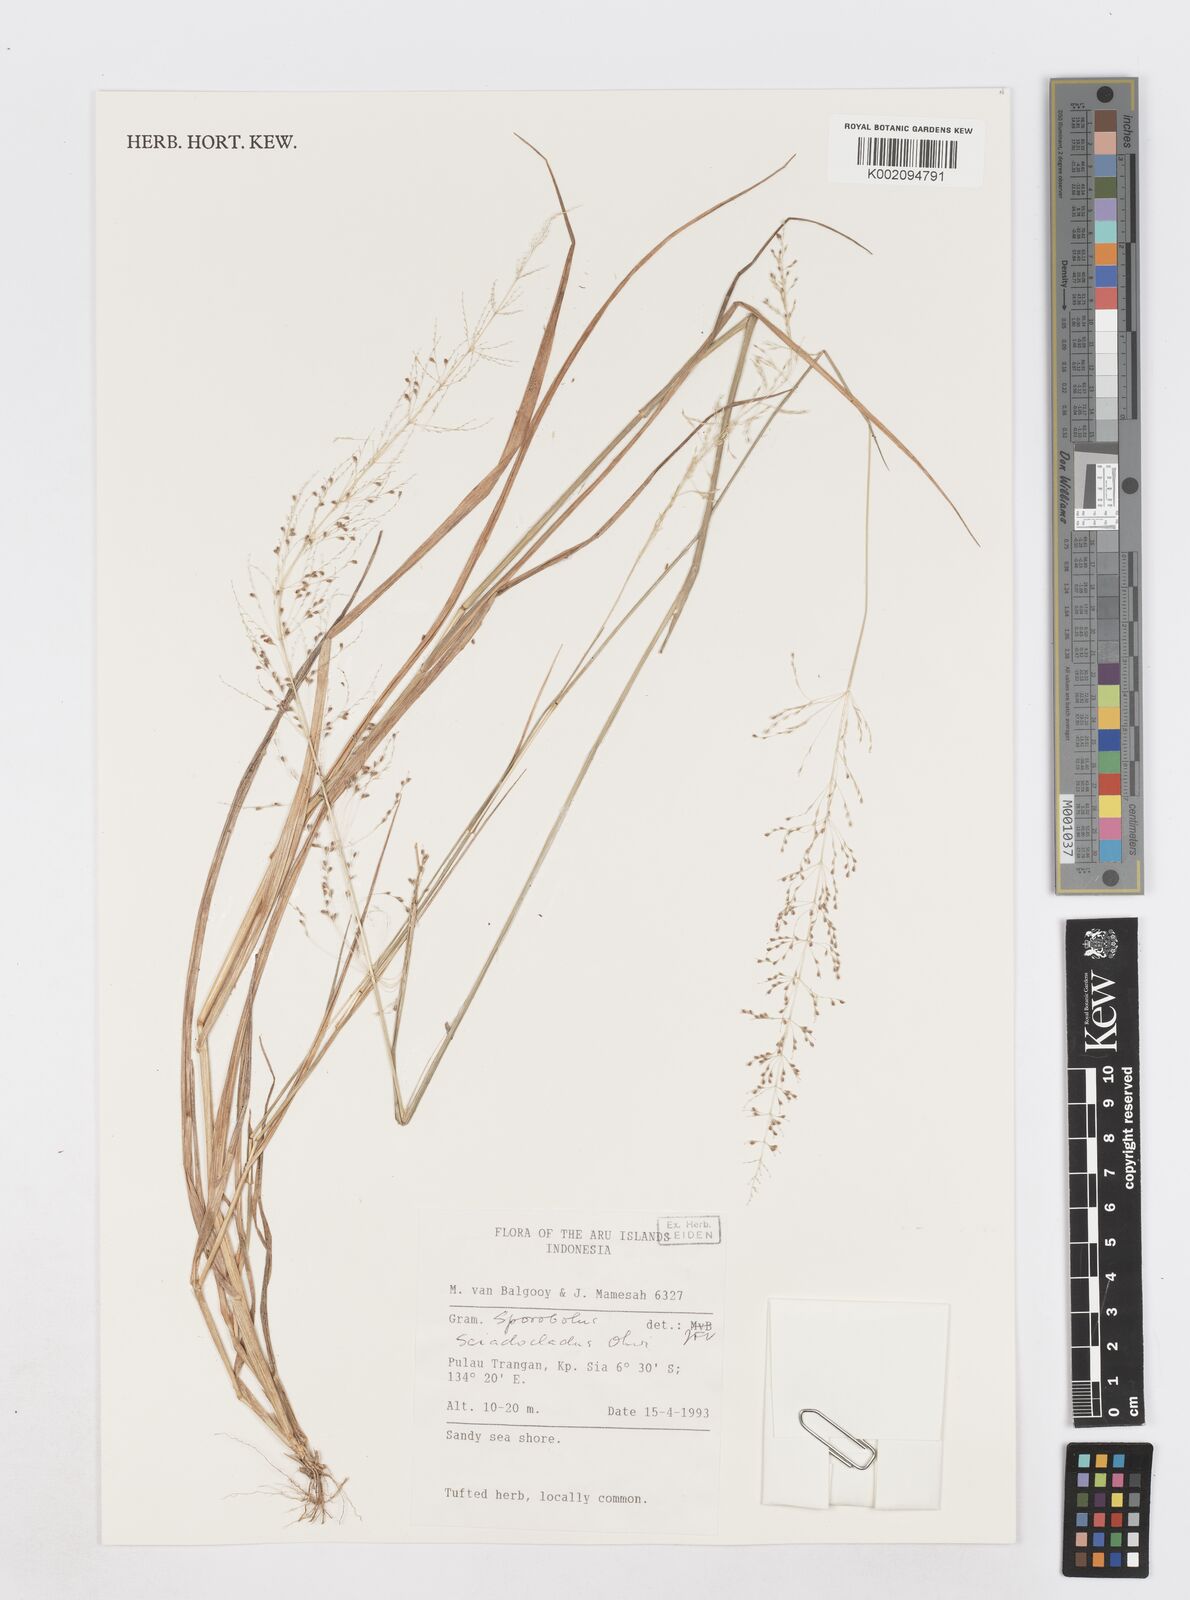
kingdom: Plantae
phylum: Tracheophyta
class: Liliopsida
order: Poales
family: Poaceae
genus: Sporobolus
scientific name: Sporobolus sciadocladus
